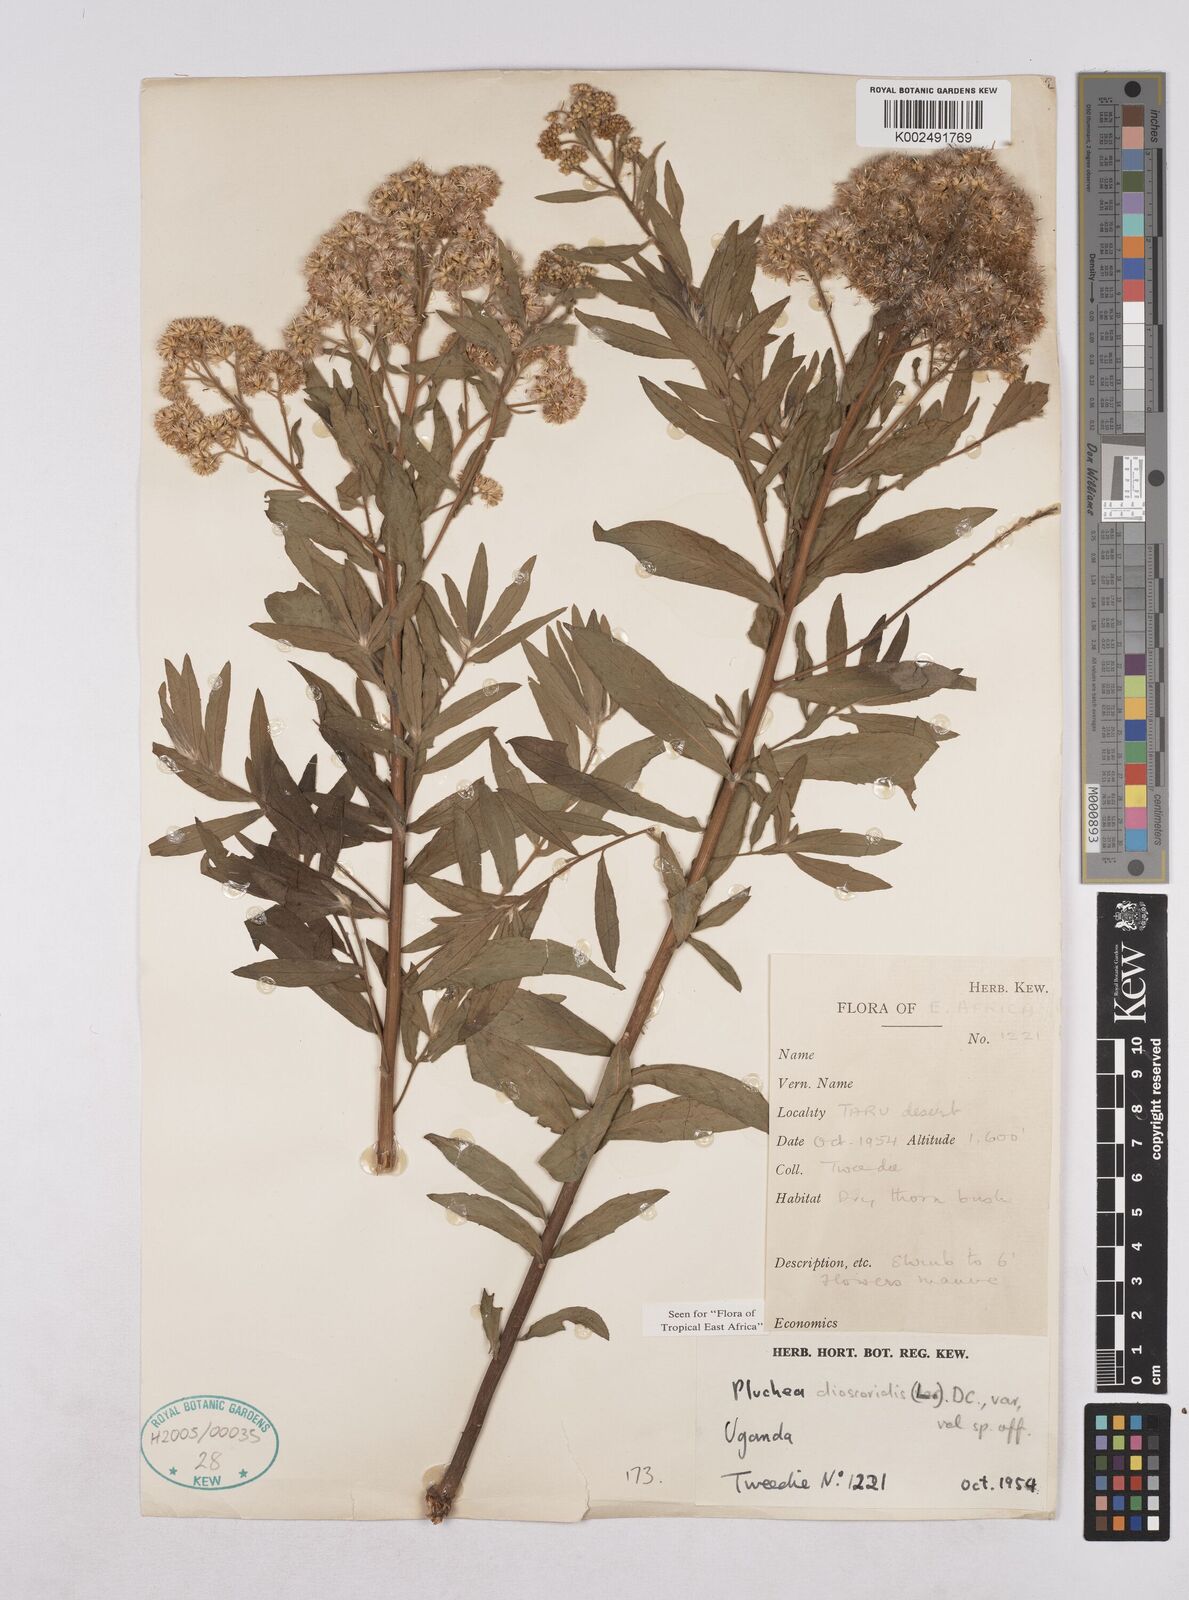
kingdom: Plantae
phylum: Tracheophyta
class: Magnoliopsida
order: Asterales
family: Asteraceae
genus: Pluchea
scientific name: Pluchea dioscoridis
